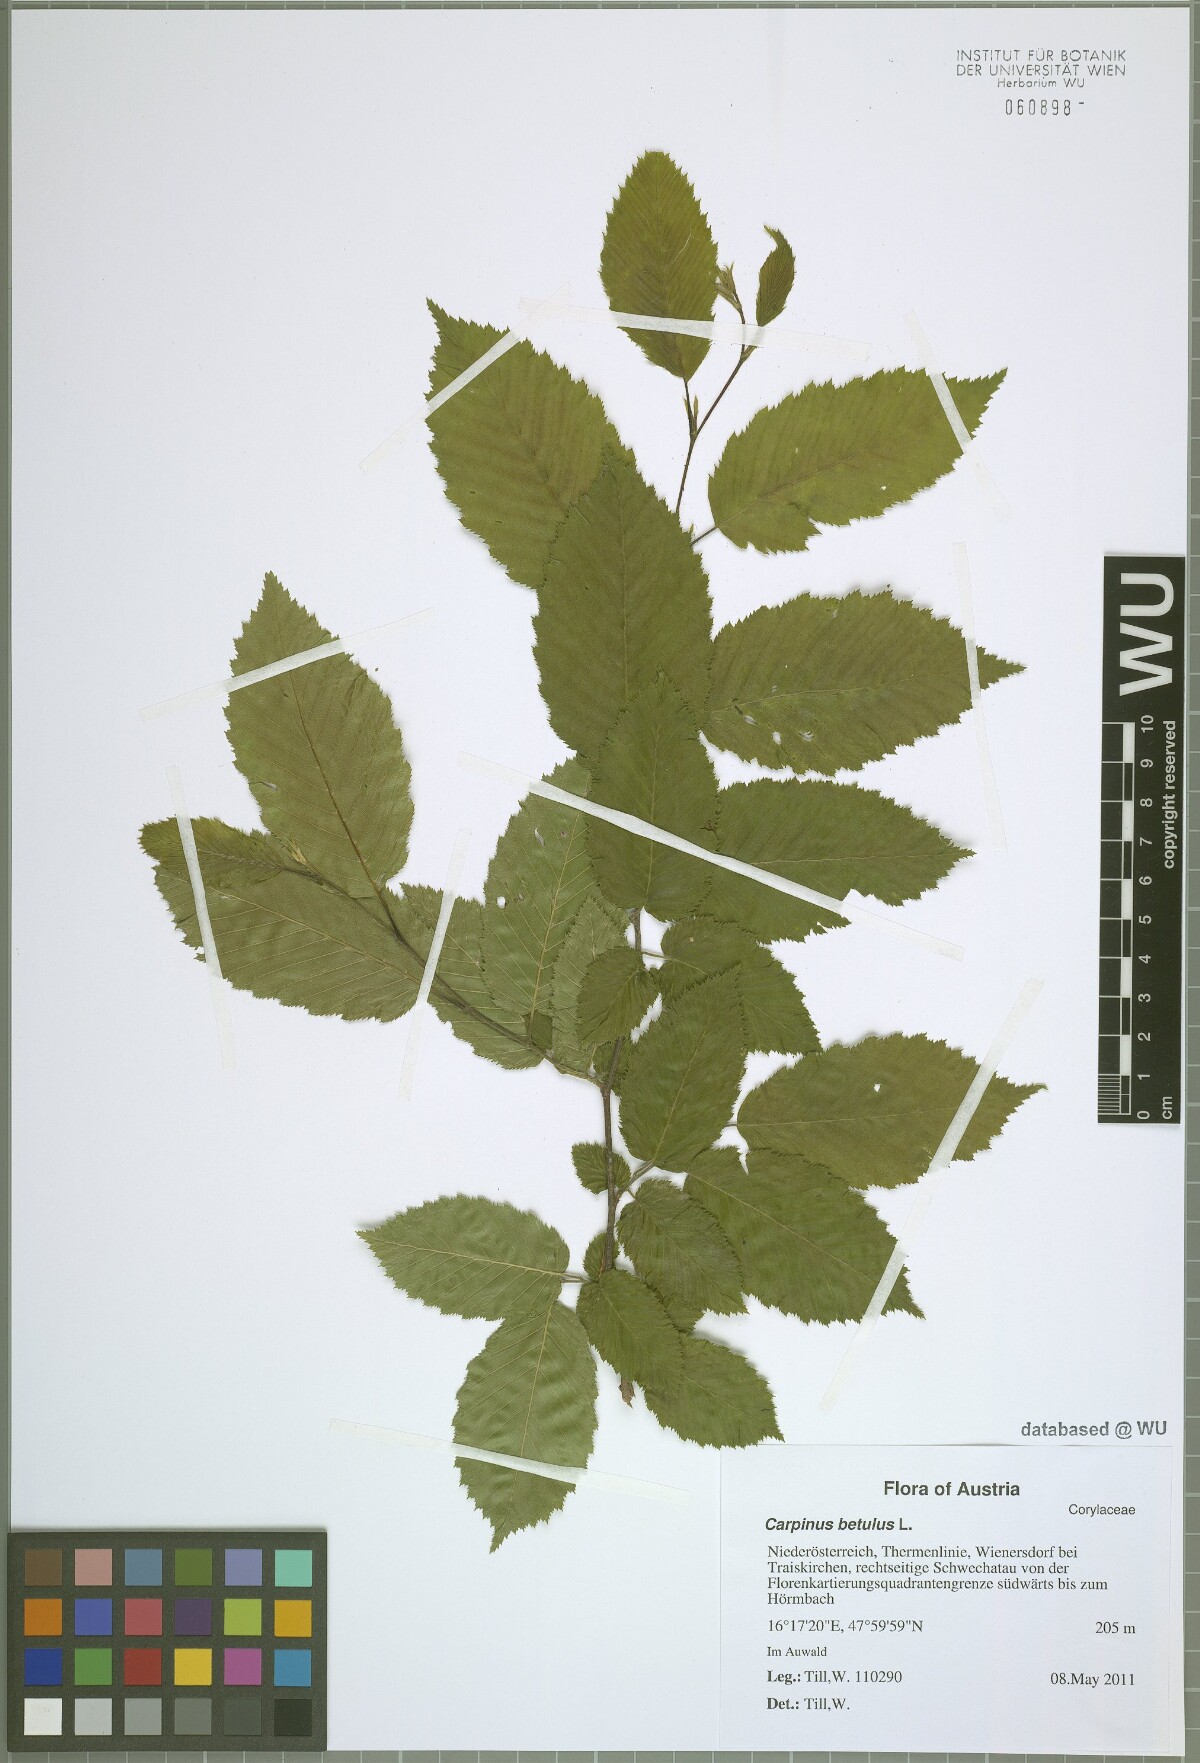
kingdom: Plantae
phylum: Tracheophyta
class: Magnoliopsida
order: Fagales
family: Betulaceae
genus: Carpinus
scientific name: Carpinus betulus
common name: Hornbeam
